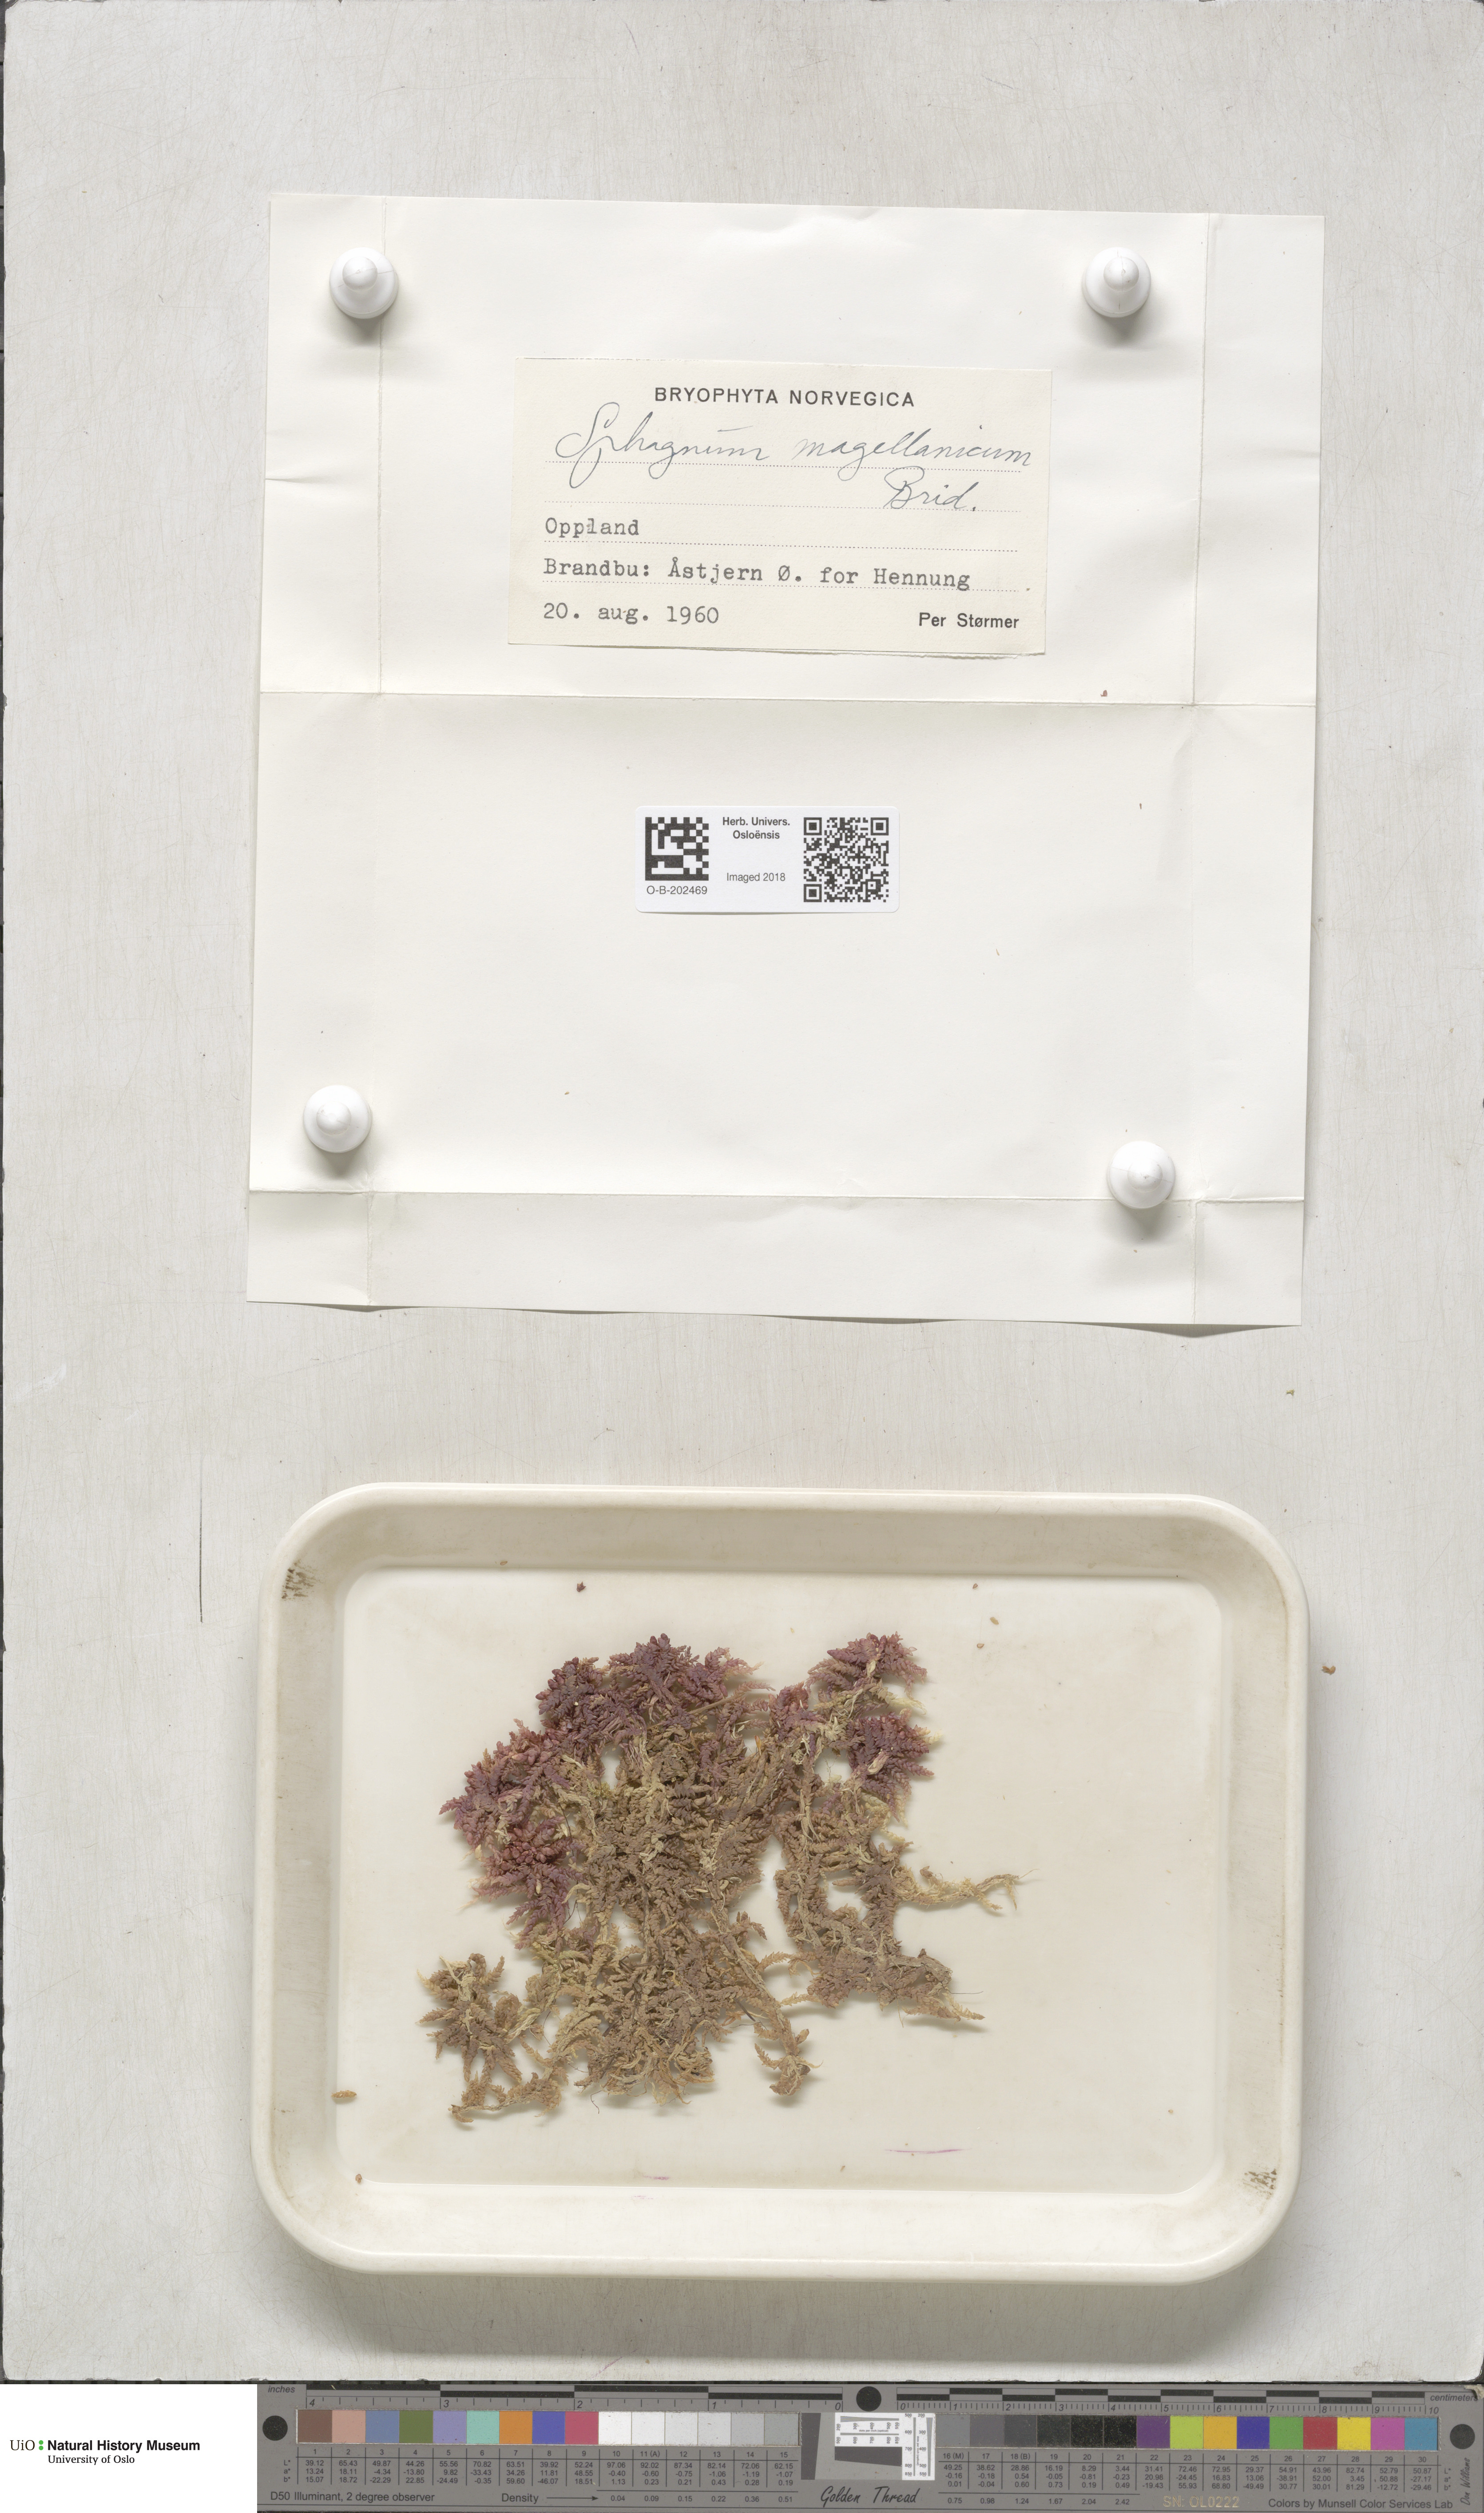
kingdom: Plantae
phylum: Bryophyta
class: Sphagnopsida
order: Sphagnales
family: Sphagnaceae
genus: Sphagnum
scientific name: Sphagnum magellanicum
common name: Magellan's peat moss
